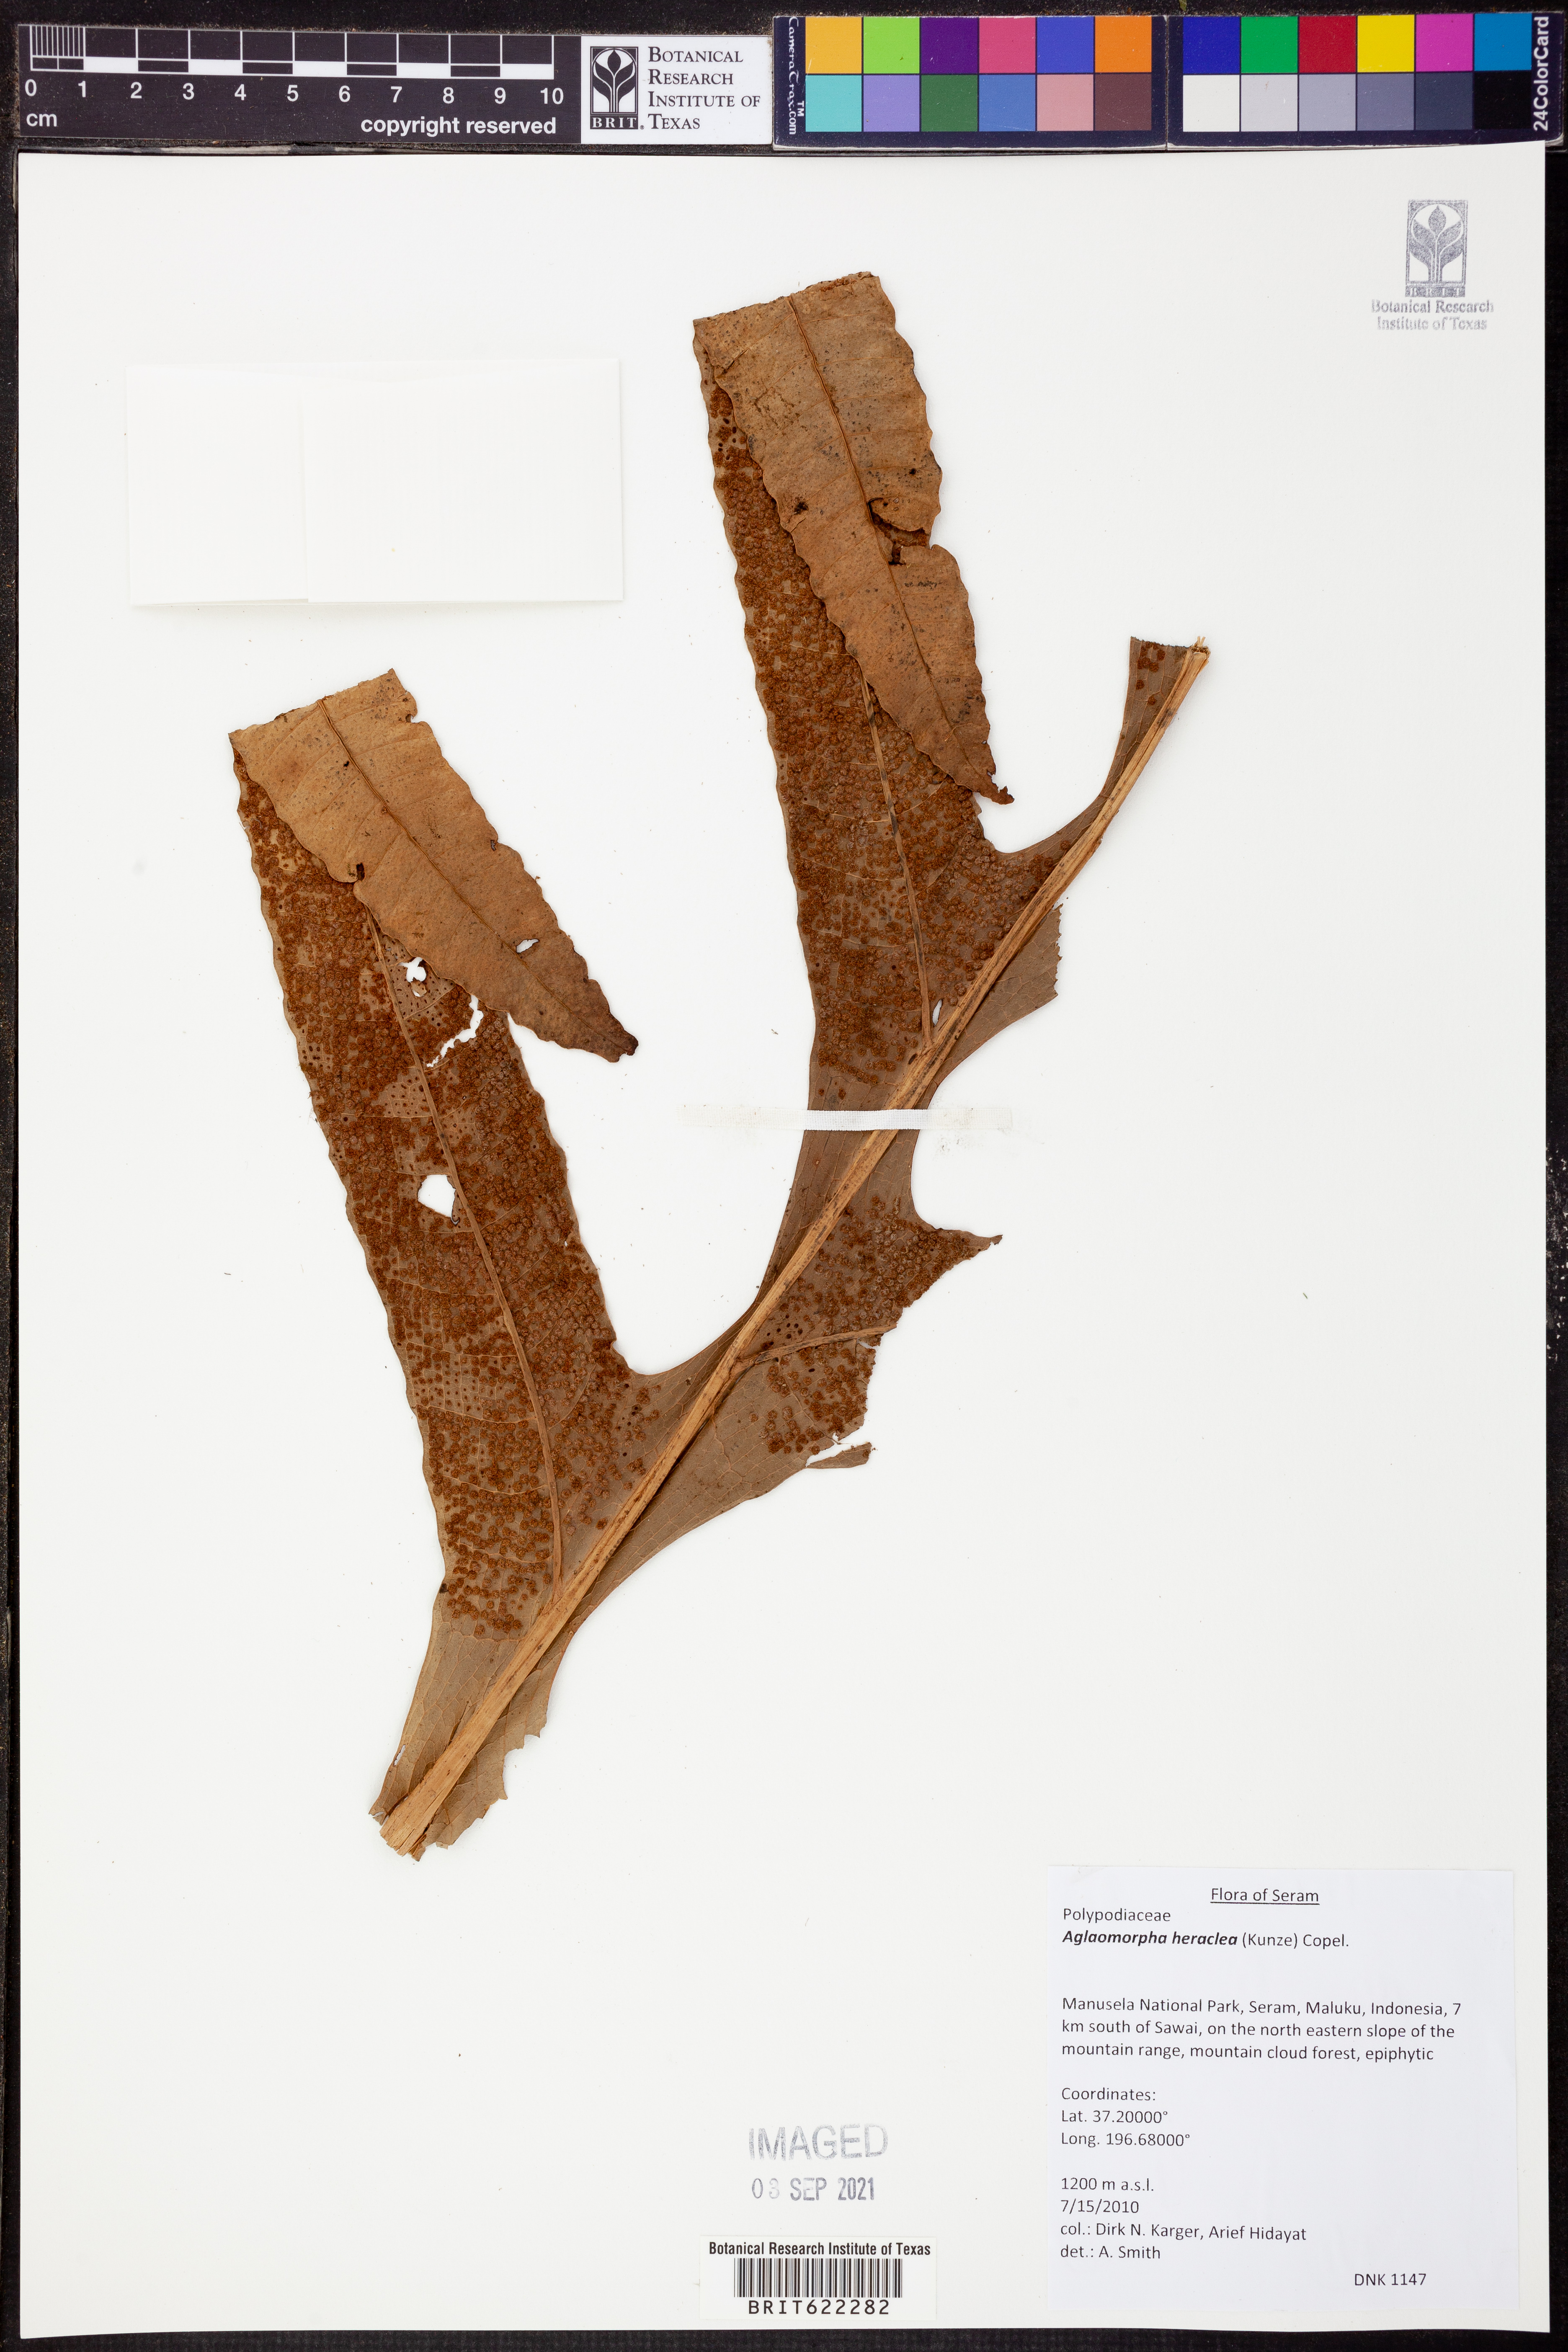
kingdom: Plantae
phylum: Tracheophyta
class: Polypodiopsida
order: Polypodiales
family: Polypodiaceae
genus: Drynaria
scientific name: Drynaria heraclea
